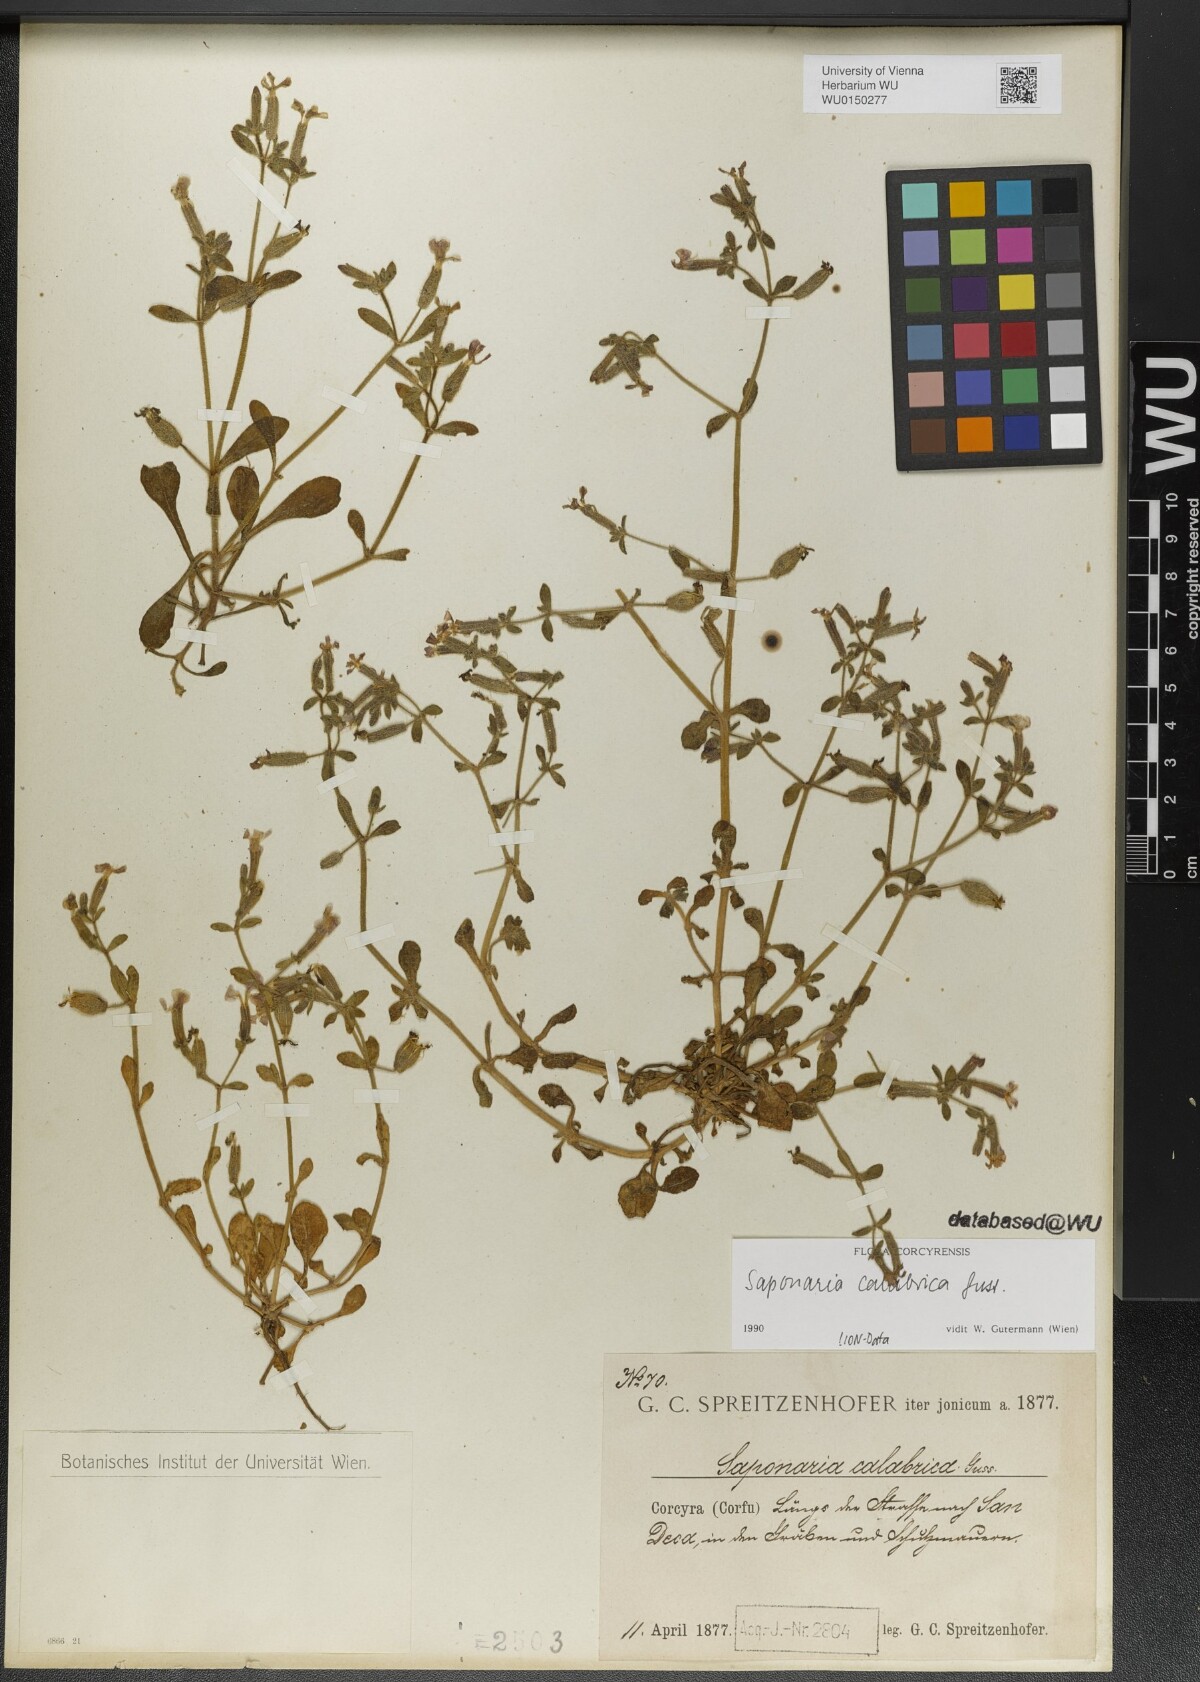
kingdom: Plantae
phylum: Tracheophyta
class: Magnoliopsida
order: Caryophyllales
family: Caryophyllaceae
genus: Saponaria
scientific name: Saponaria calabrica
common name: Adriatic soapwort
